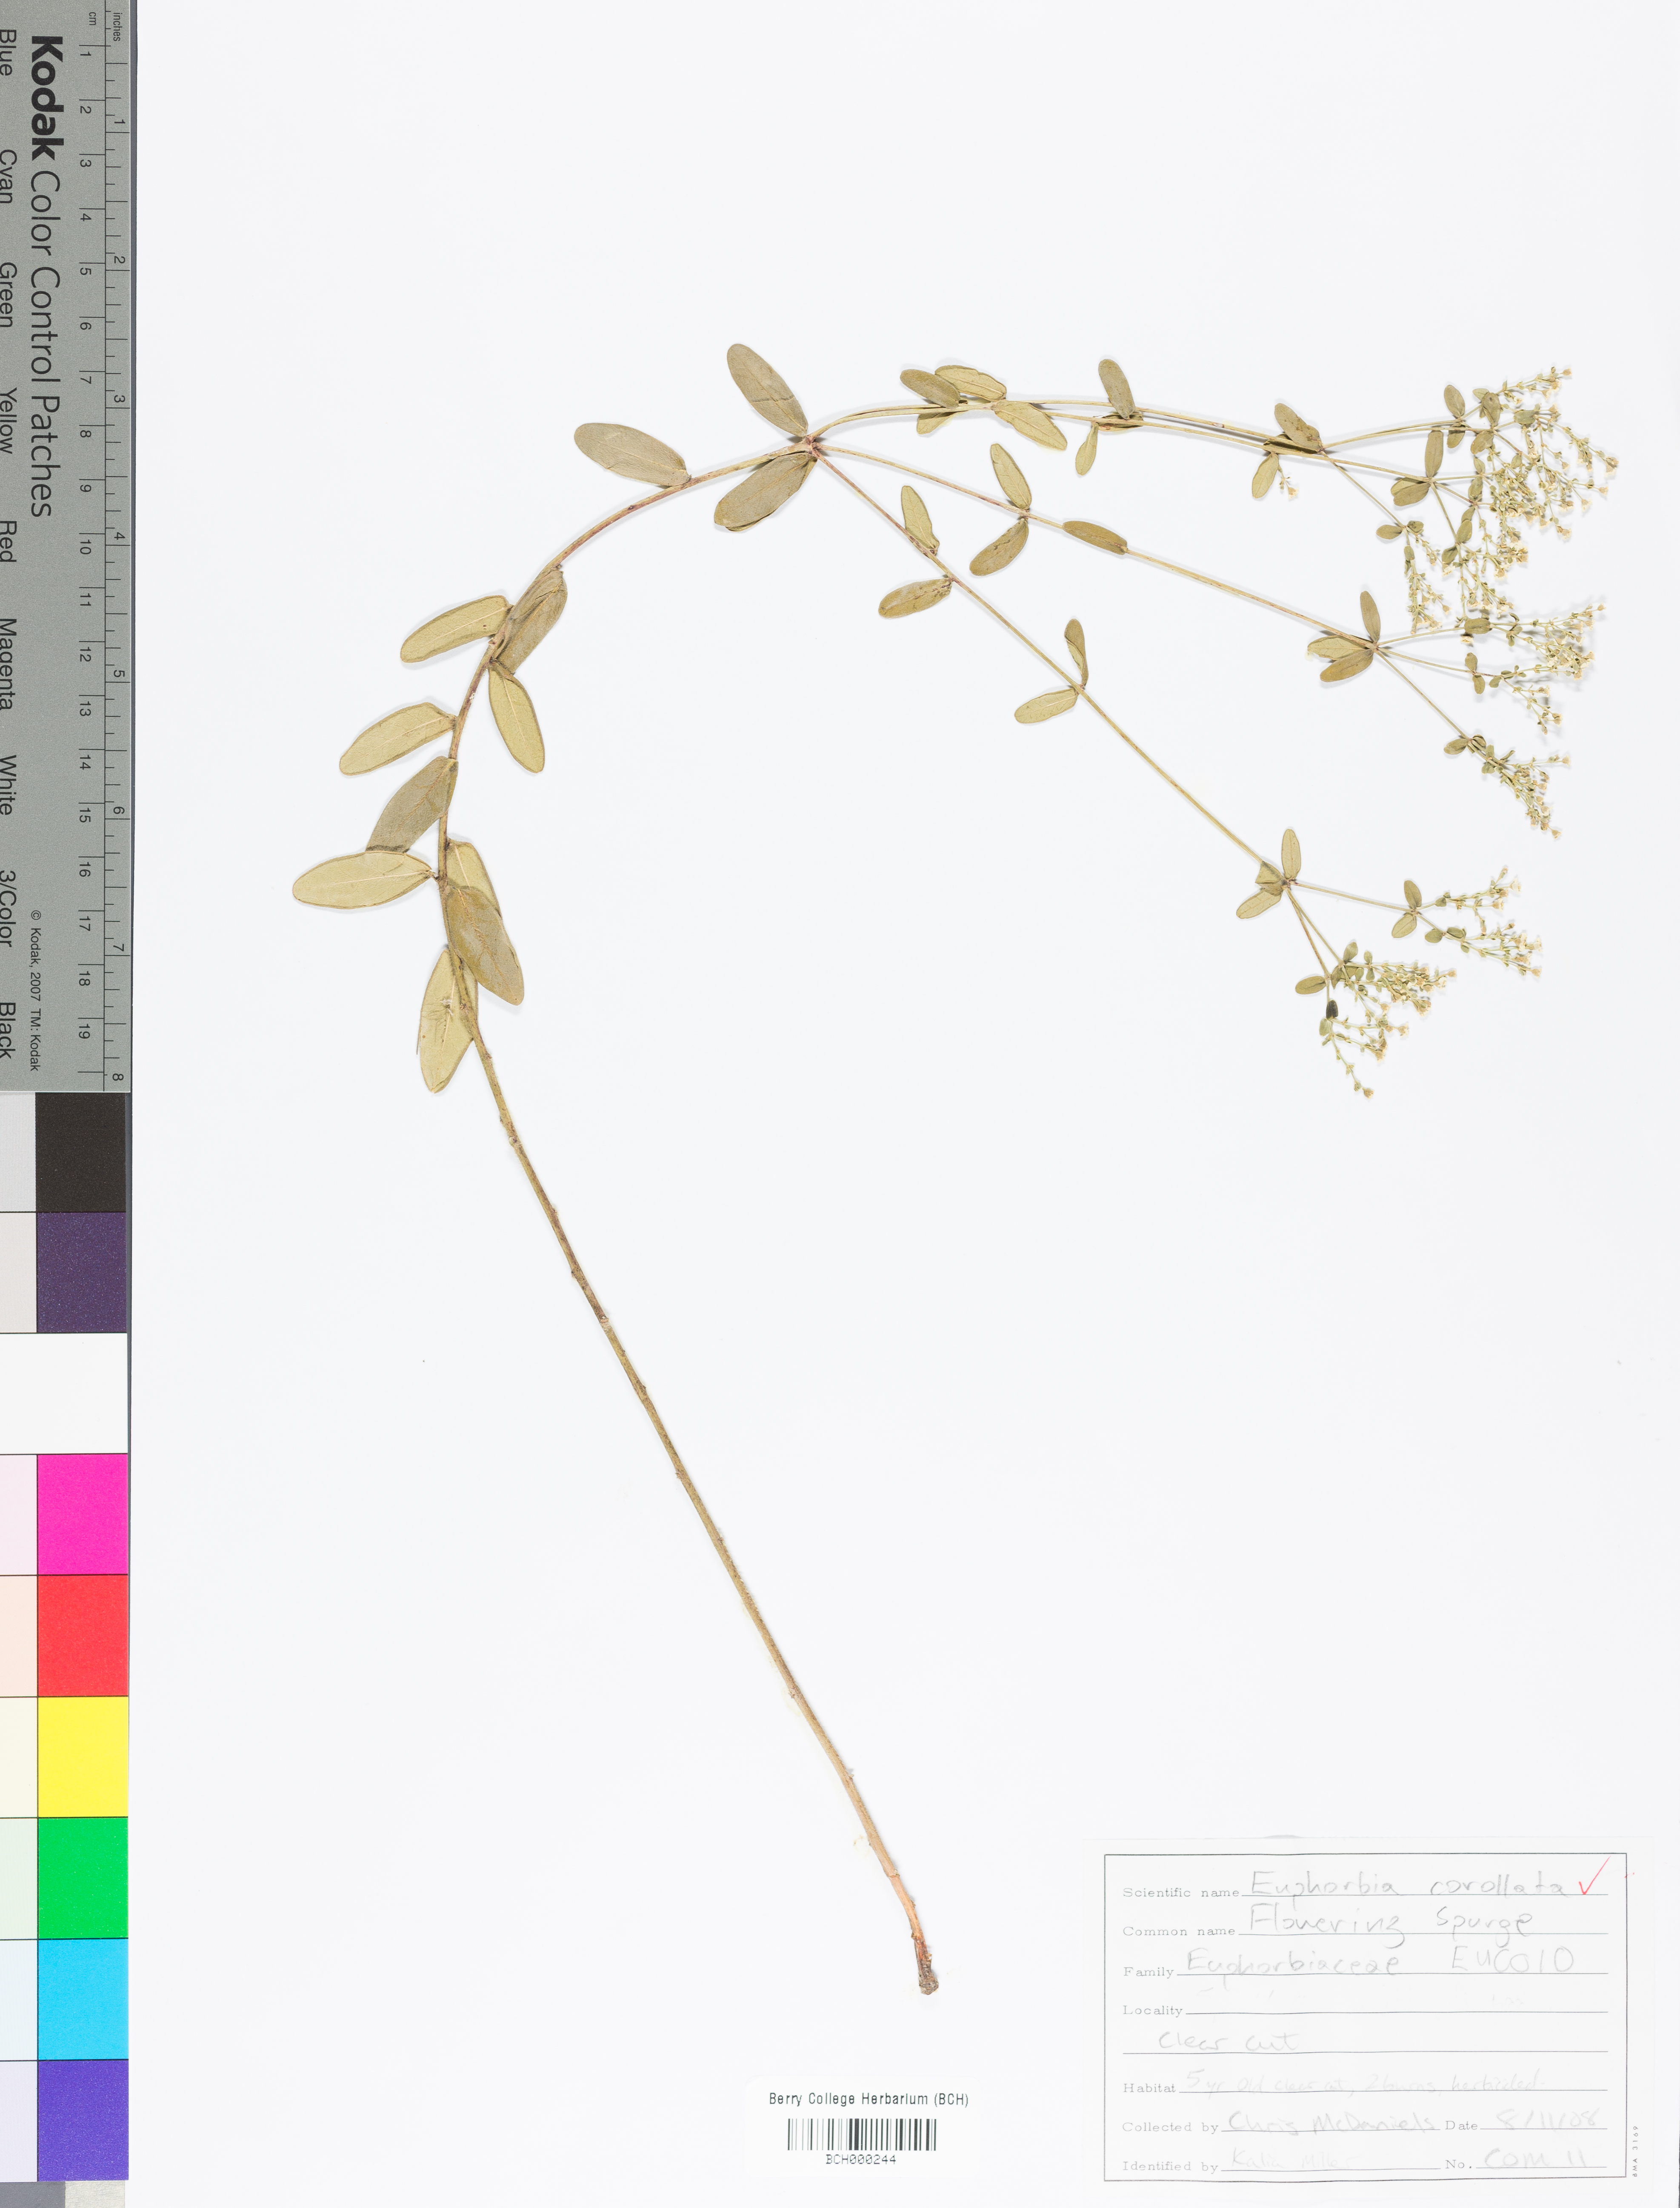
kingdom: Plantae
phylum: Tracheophyta
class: Magnoliopsida
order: Malpighiales
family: Euphorbiaceae
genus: Euphorbia
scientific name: Euphorbia corollata
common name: Flowering spurge
